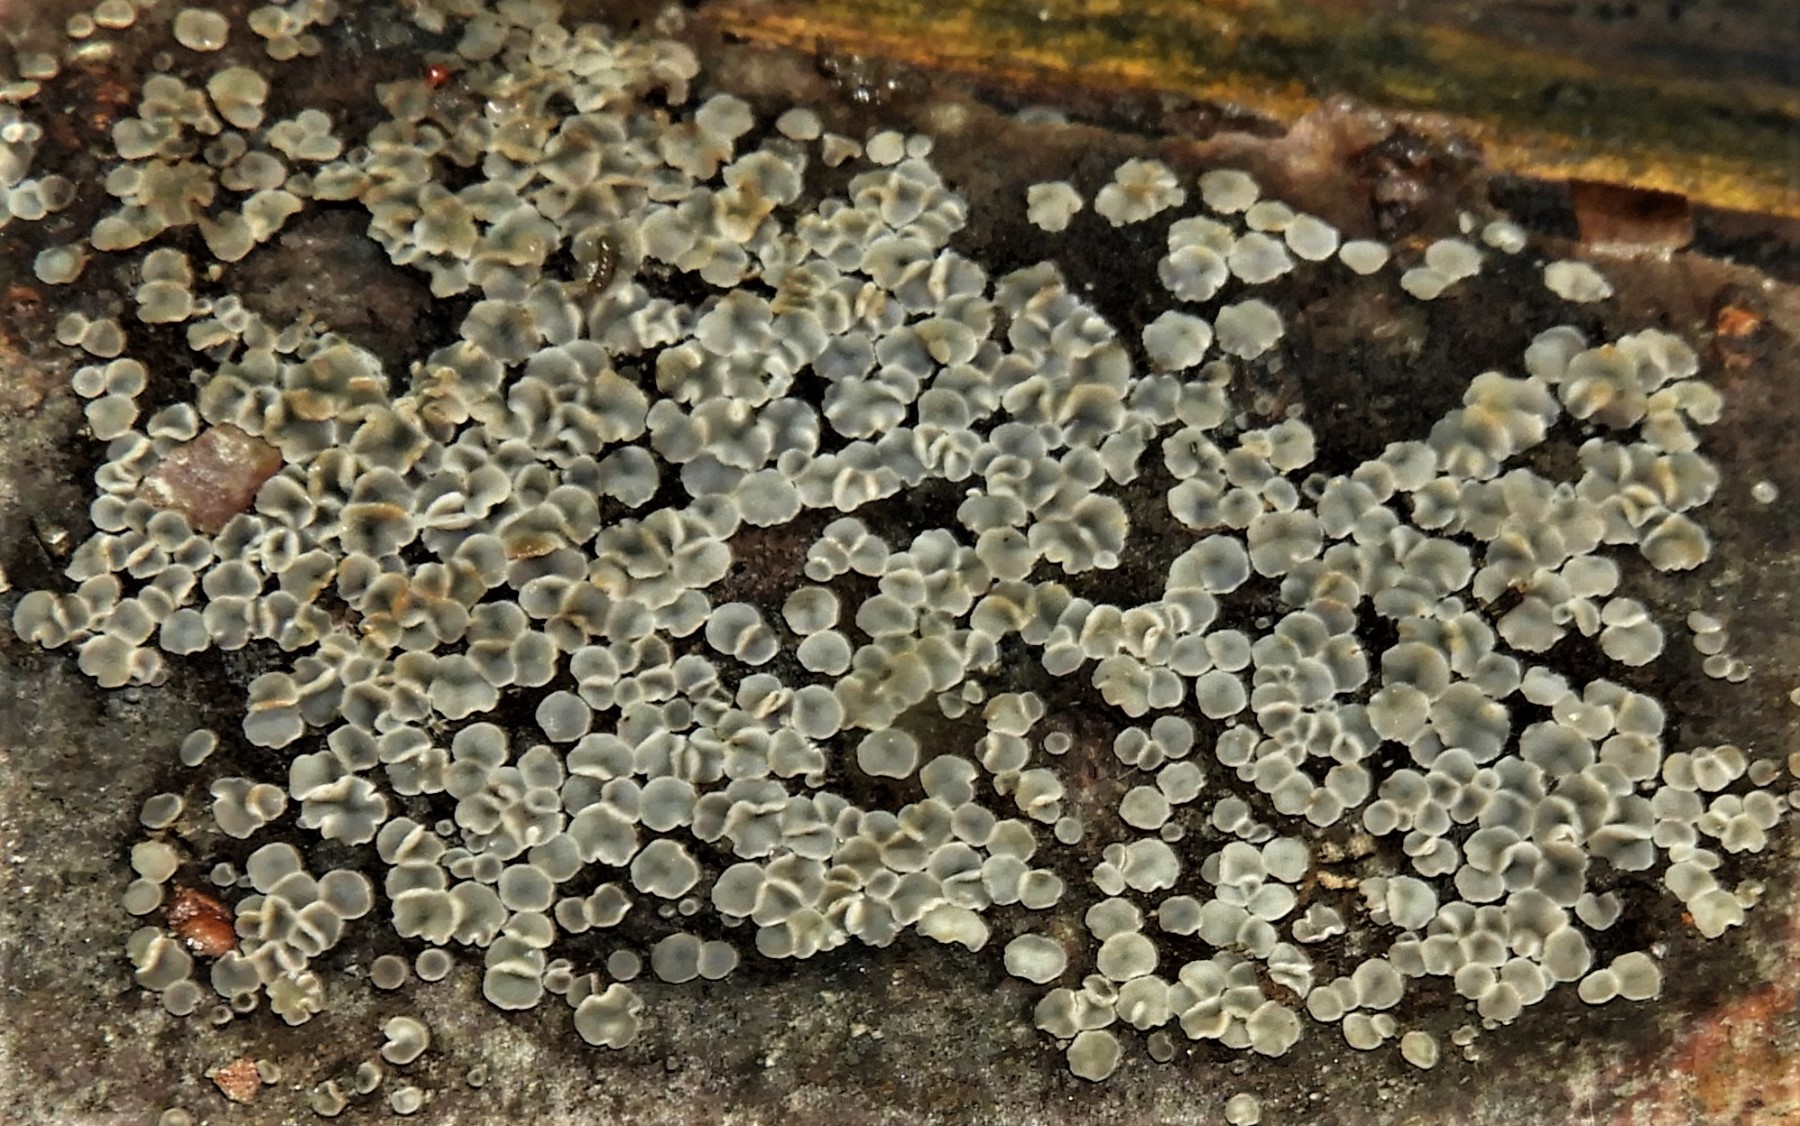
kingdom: Fungi
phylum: Ascomycota
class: Leotiomycetes
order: Helotiales
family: Mollisiaceae
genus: Mollisia
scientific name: Mollisia
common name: gråskive
